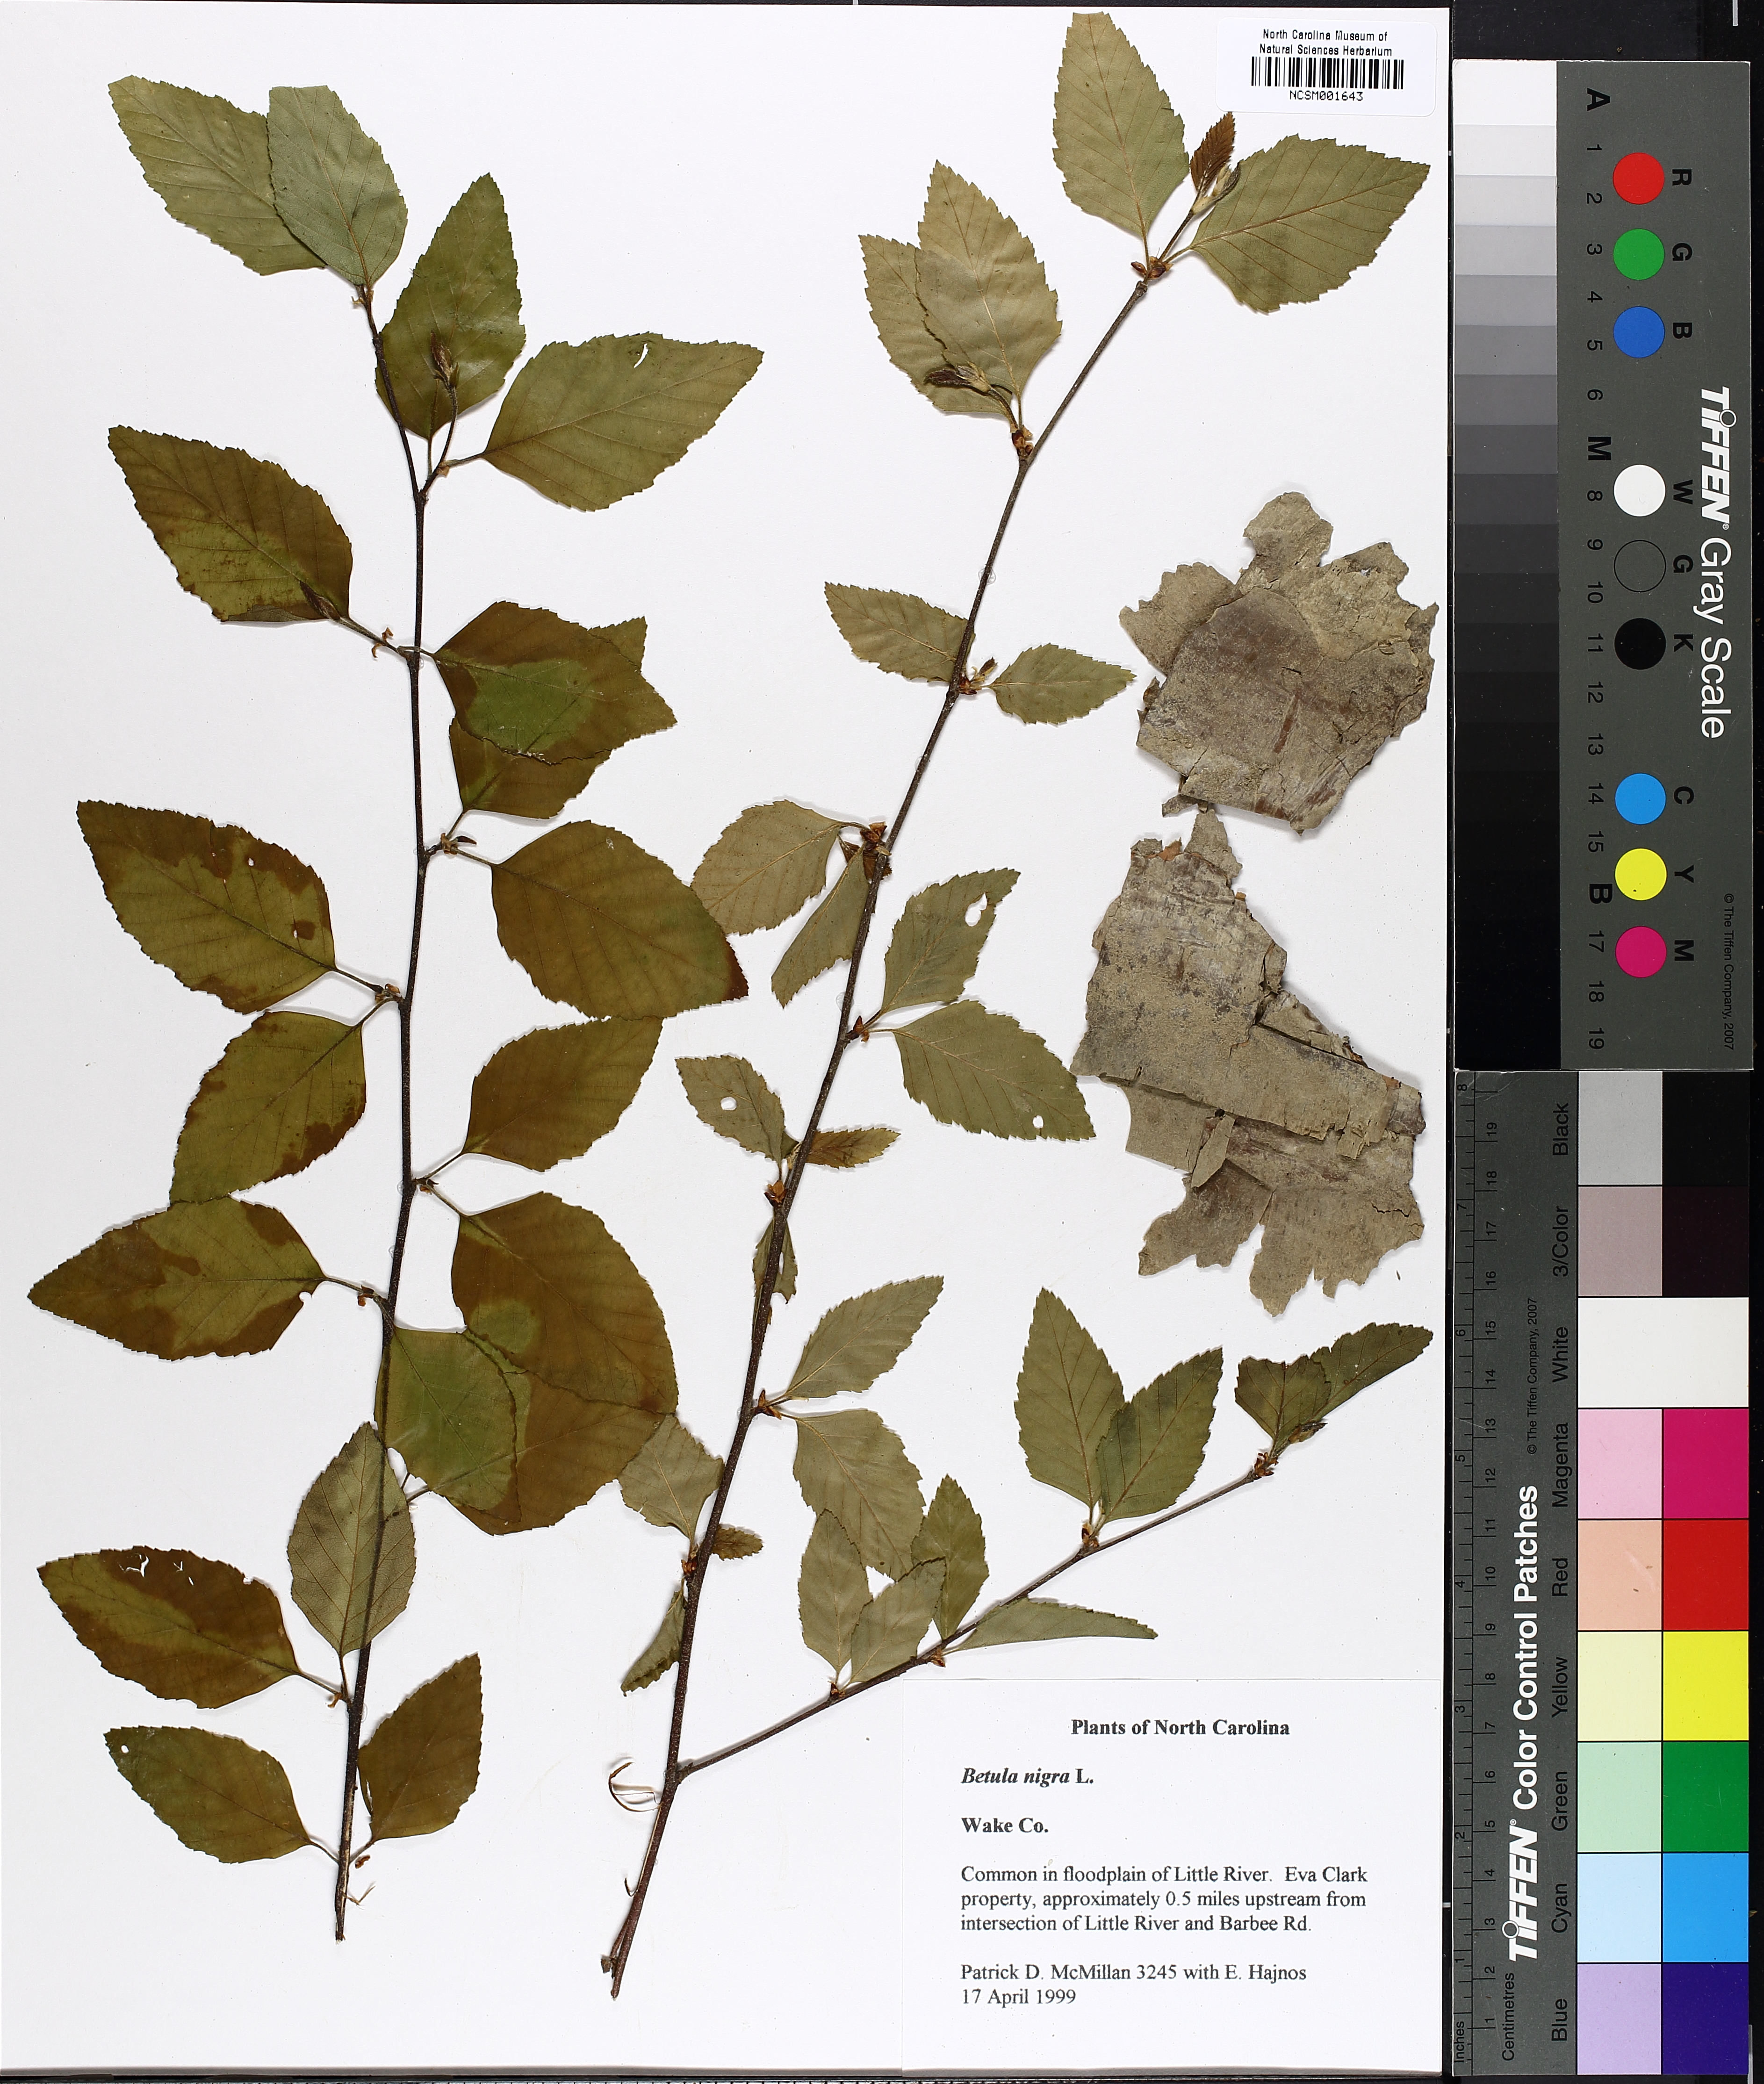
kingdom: Plantae
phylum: Tracheophyta
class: Magnoliopsida
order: Fagales
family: Betulaceae
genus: Betula
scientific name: Betula nigra
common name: Black birch
